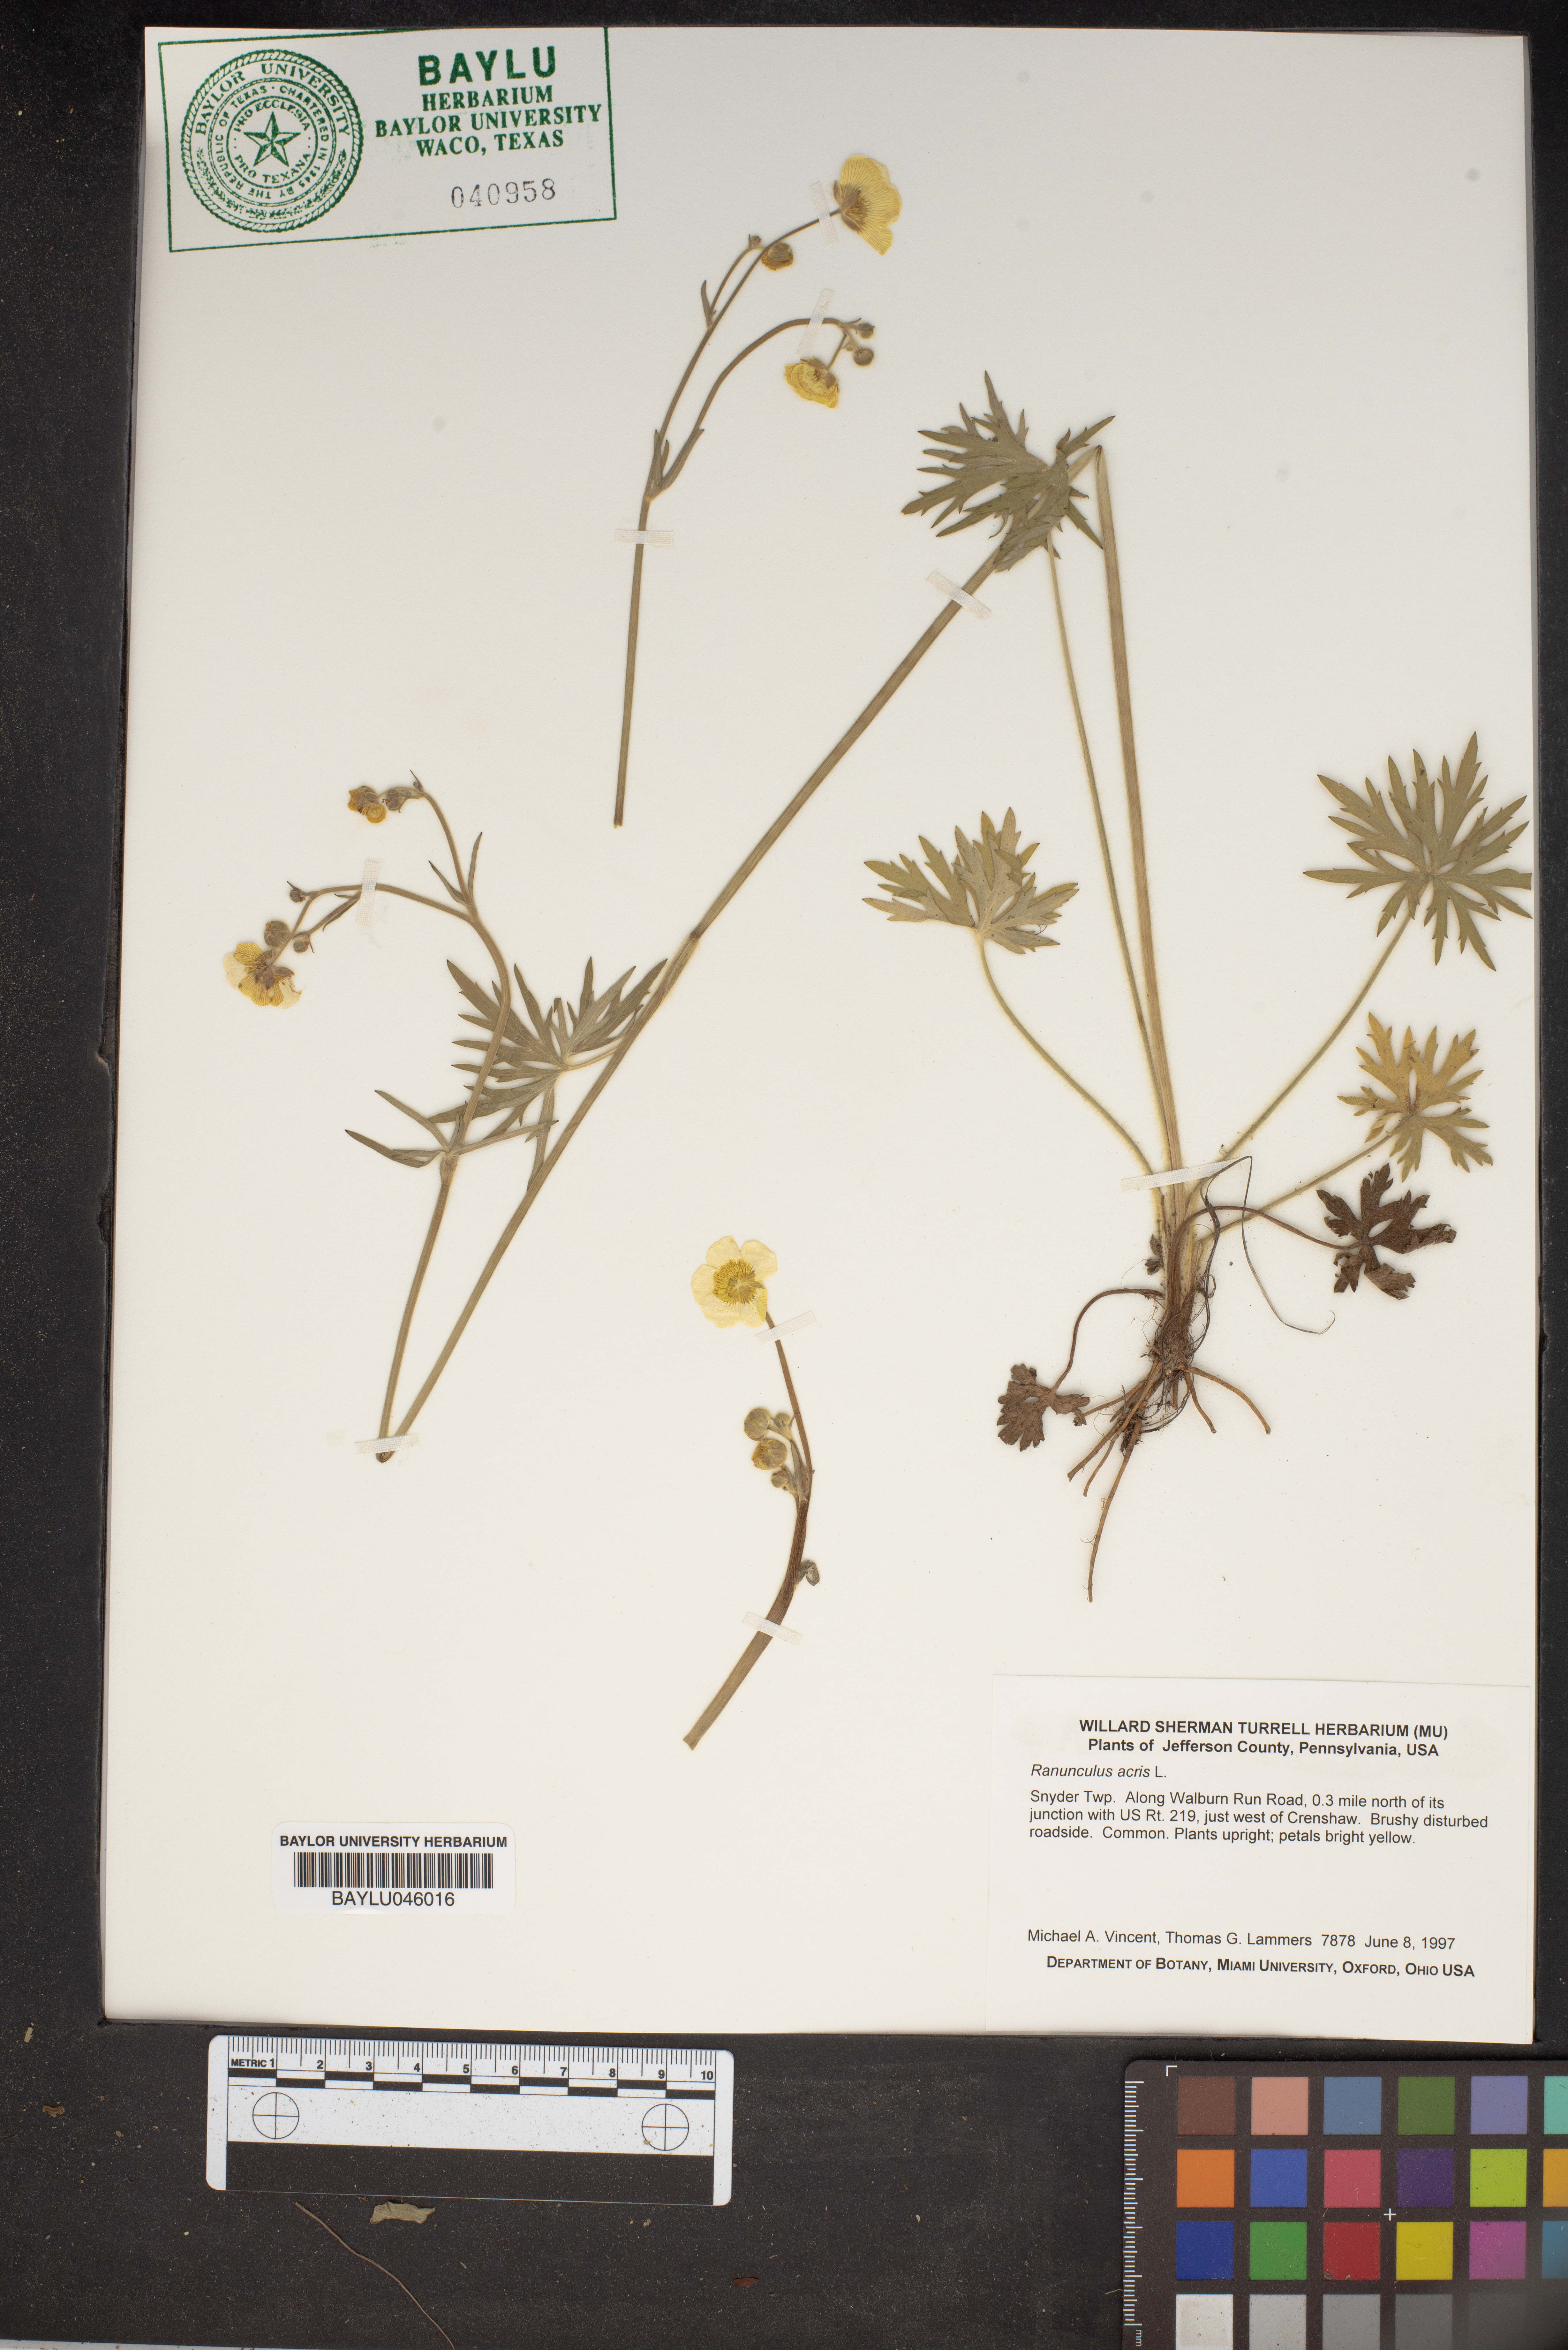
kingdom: Plantae
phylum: Tracheophyta
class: Magnoliopsida
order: Ranunculales
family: Ranunculaceae
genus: Ranunculus
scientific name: Ranunculus acris
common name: Meadow buttercup
